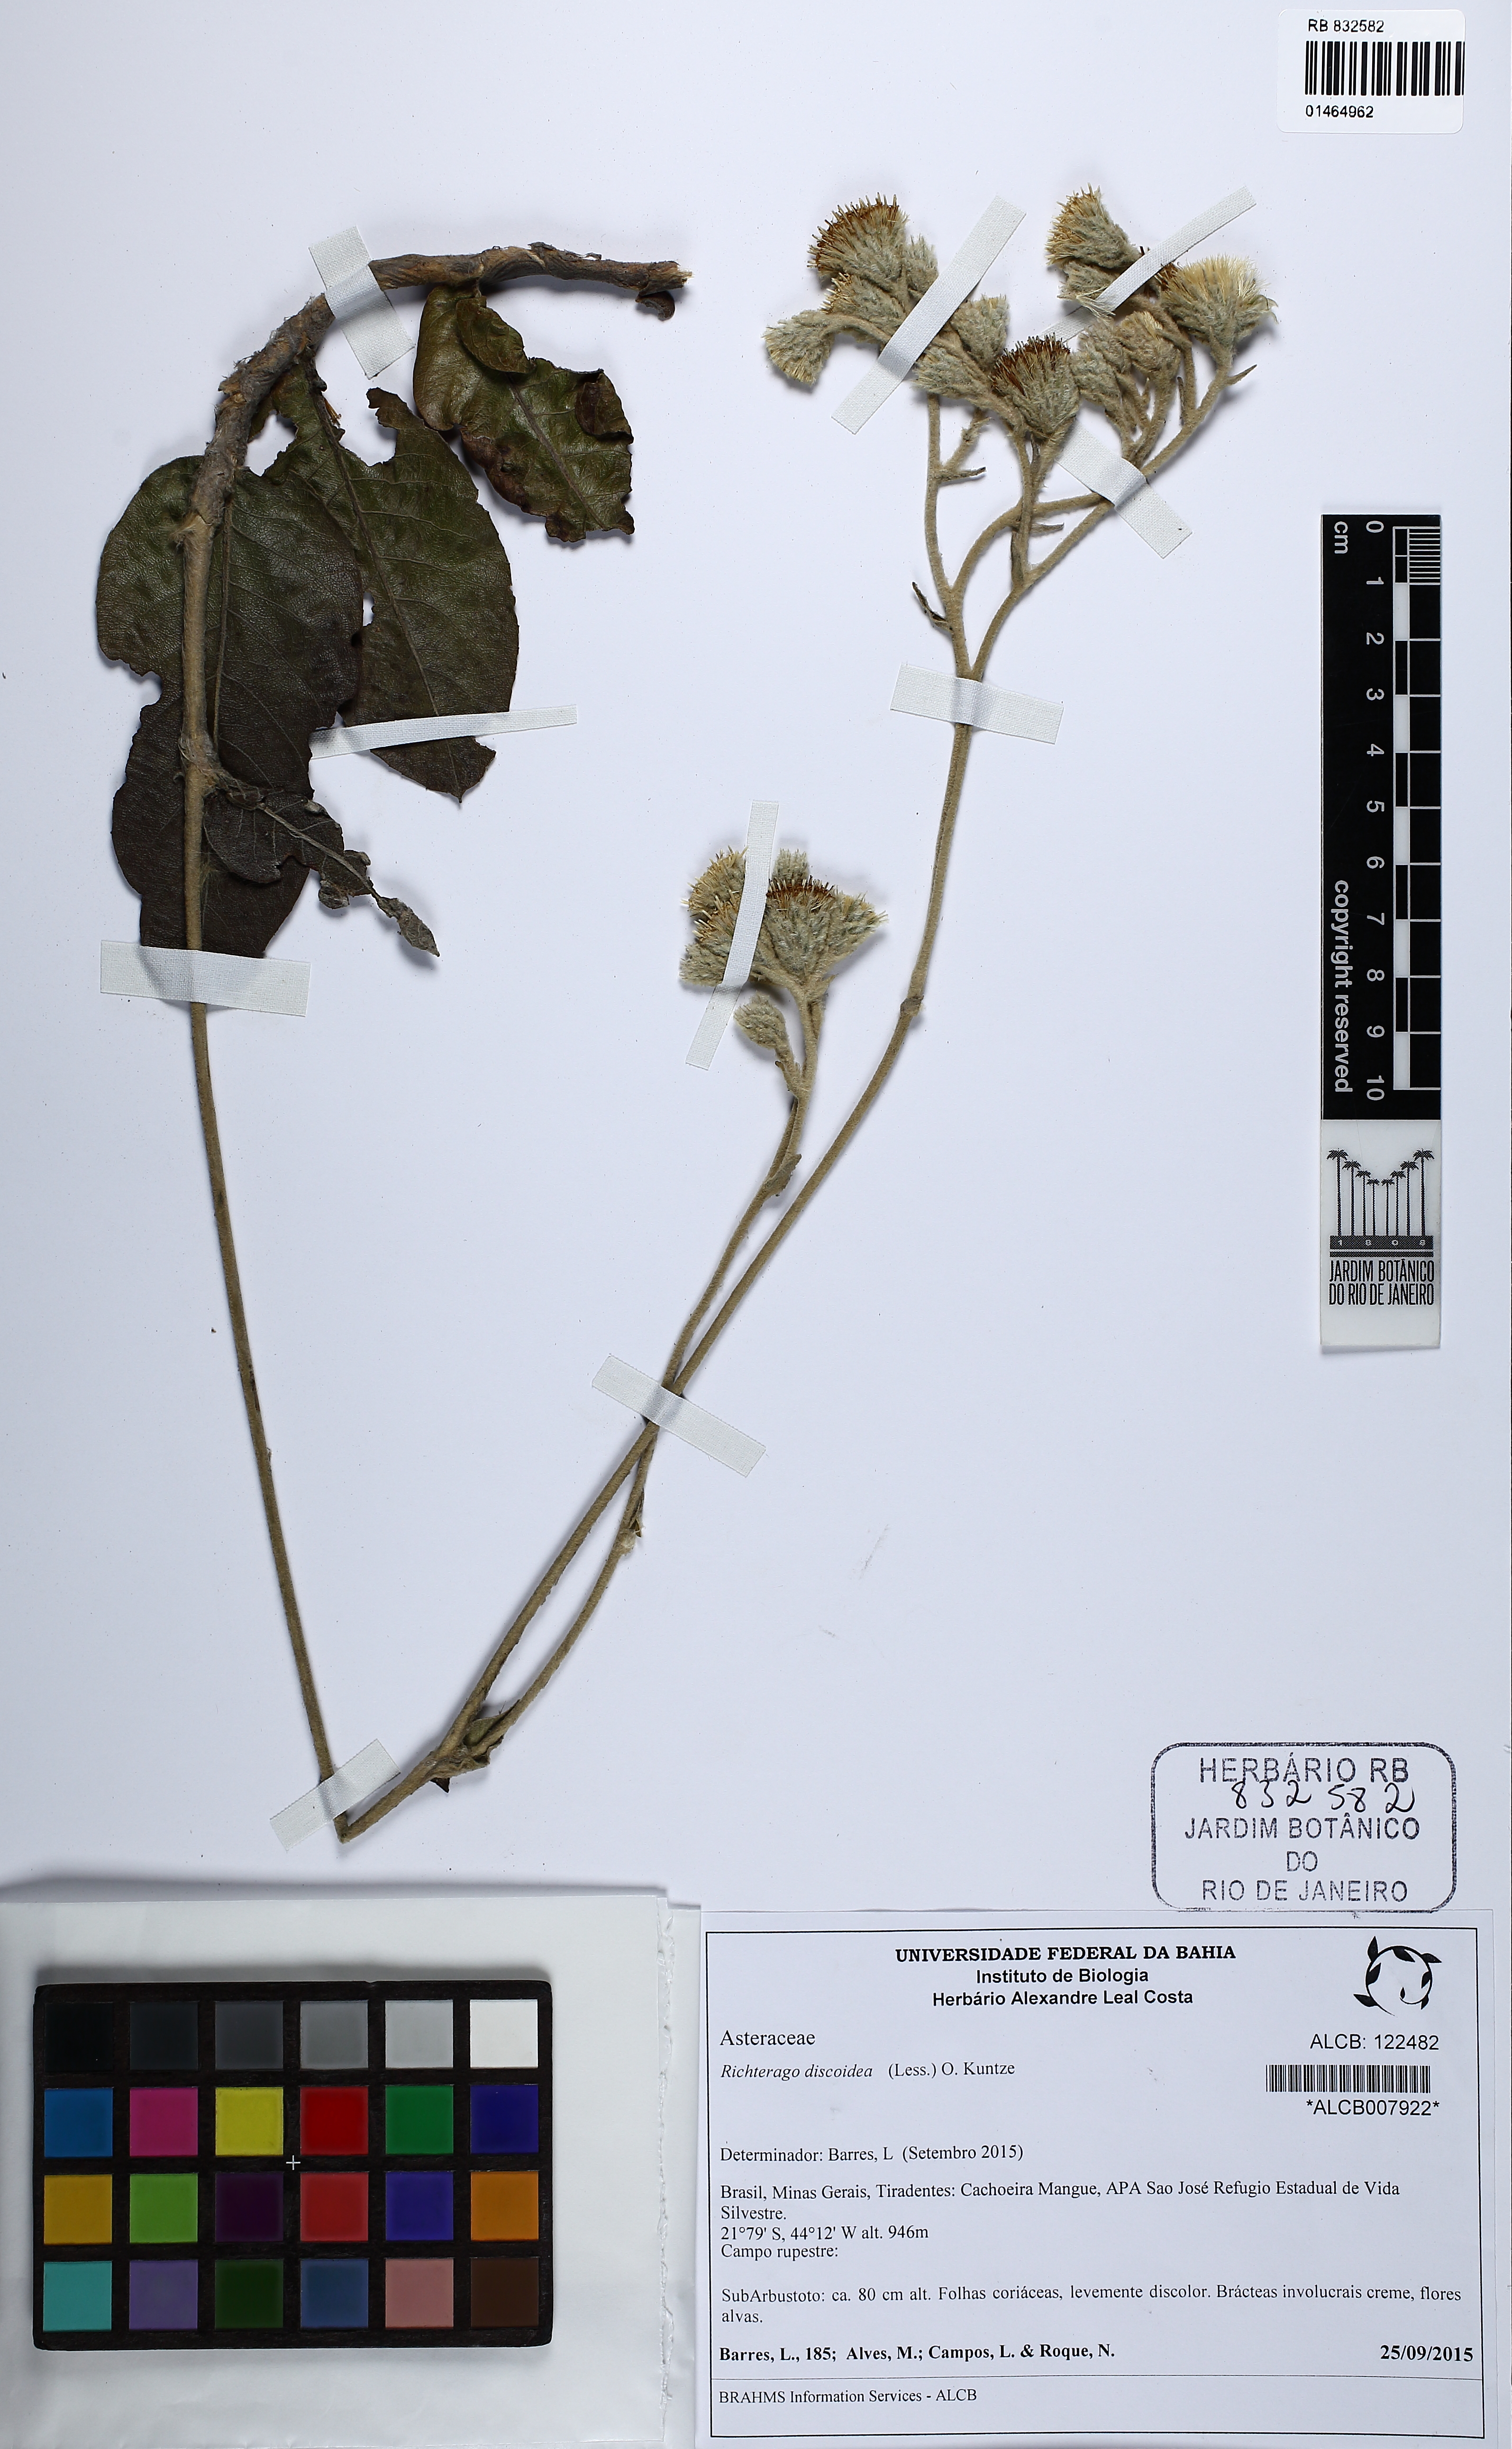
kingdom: Plantae
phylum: Tracheophyta
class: Magnoliopsida
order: Asterales
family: Asteraceae
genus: Richterago
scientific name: Richterago discoidea
